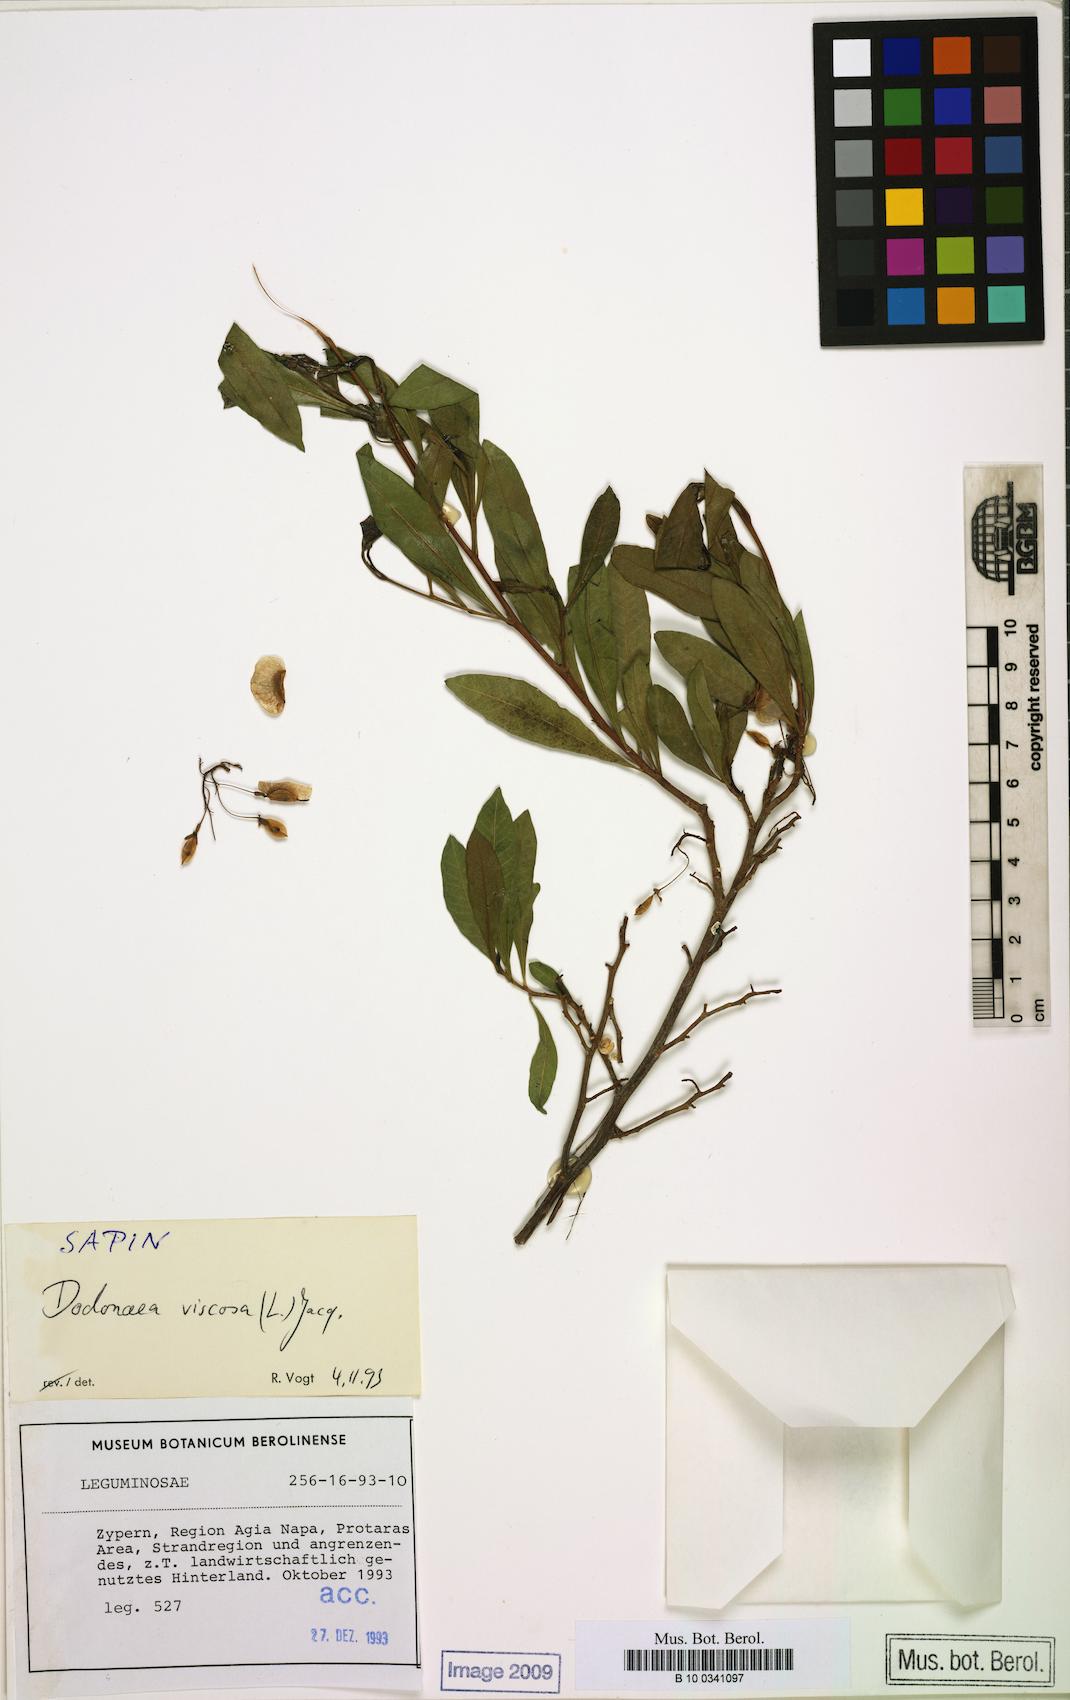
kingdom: Plantae
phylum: Tracheophyta
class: Magnoliopsida
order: Sapindales
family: Sapindaceae
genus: Dodonaea
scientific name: Dodonaea viscosa
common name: Hopbush
